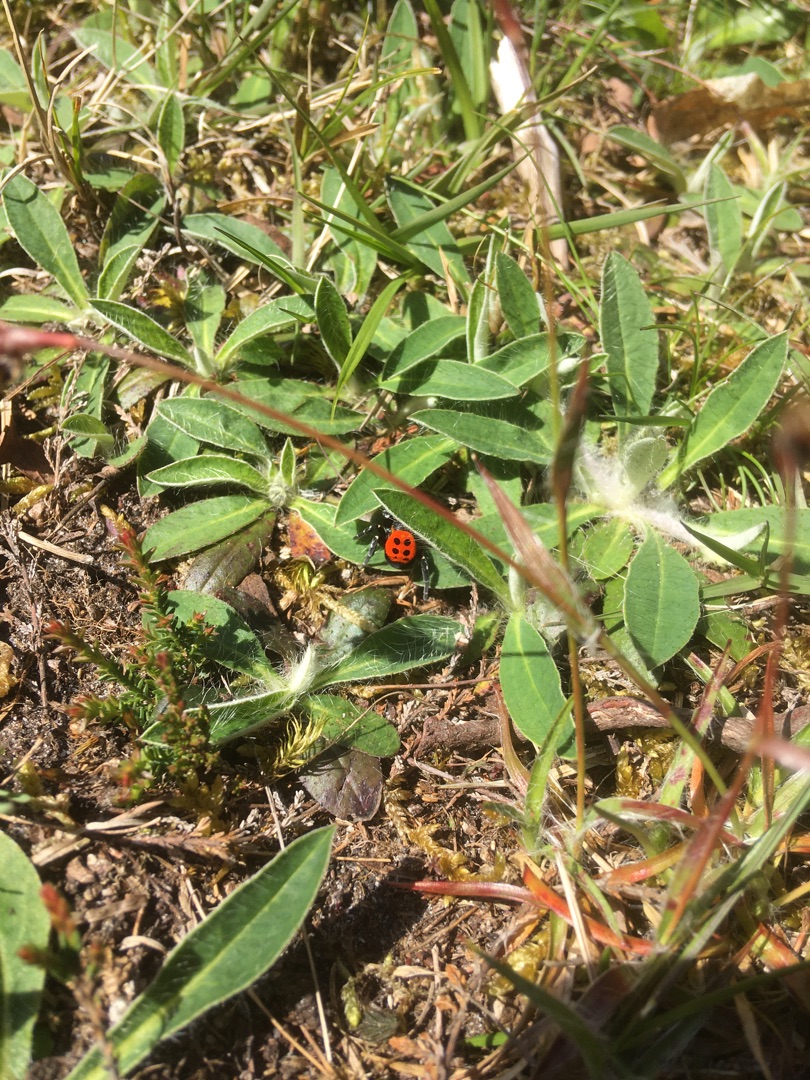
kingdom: Animalia
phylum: Arthropoda
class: Arachnida
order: Araneae
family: Eresidae
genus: Eresus
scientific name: Eresus sandaliatus
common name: Mariehøneedderkop
